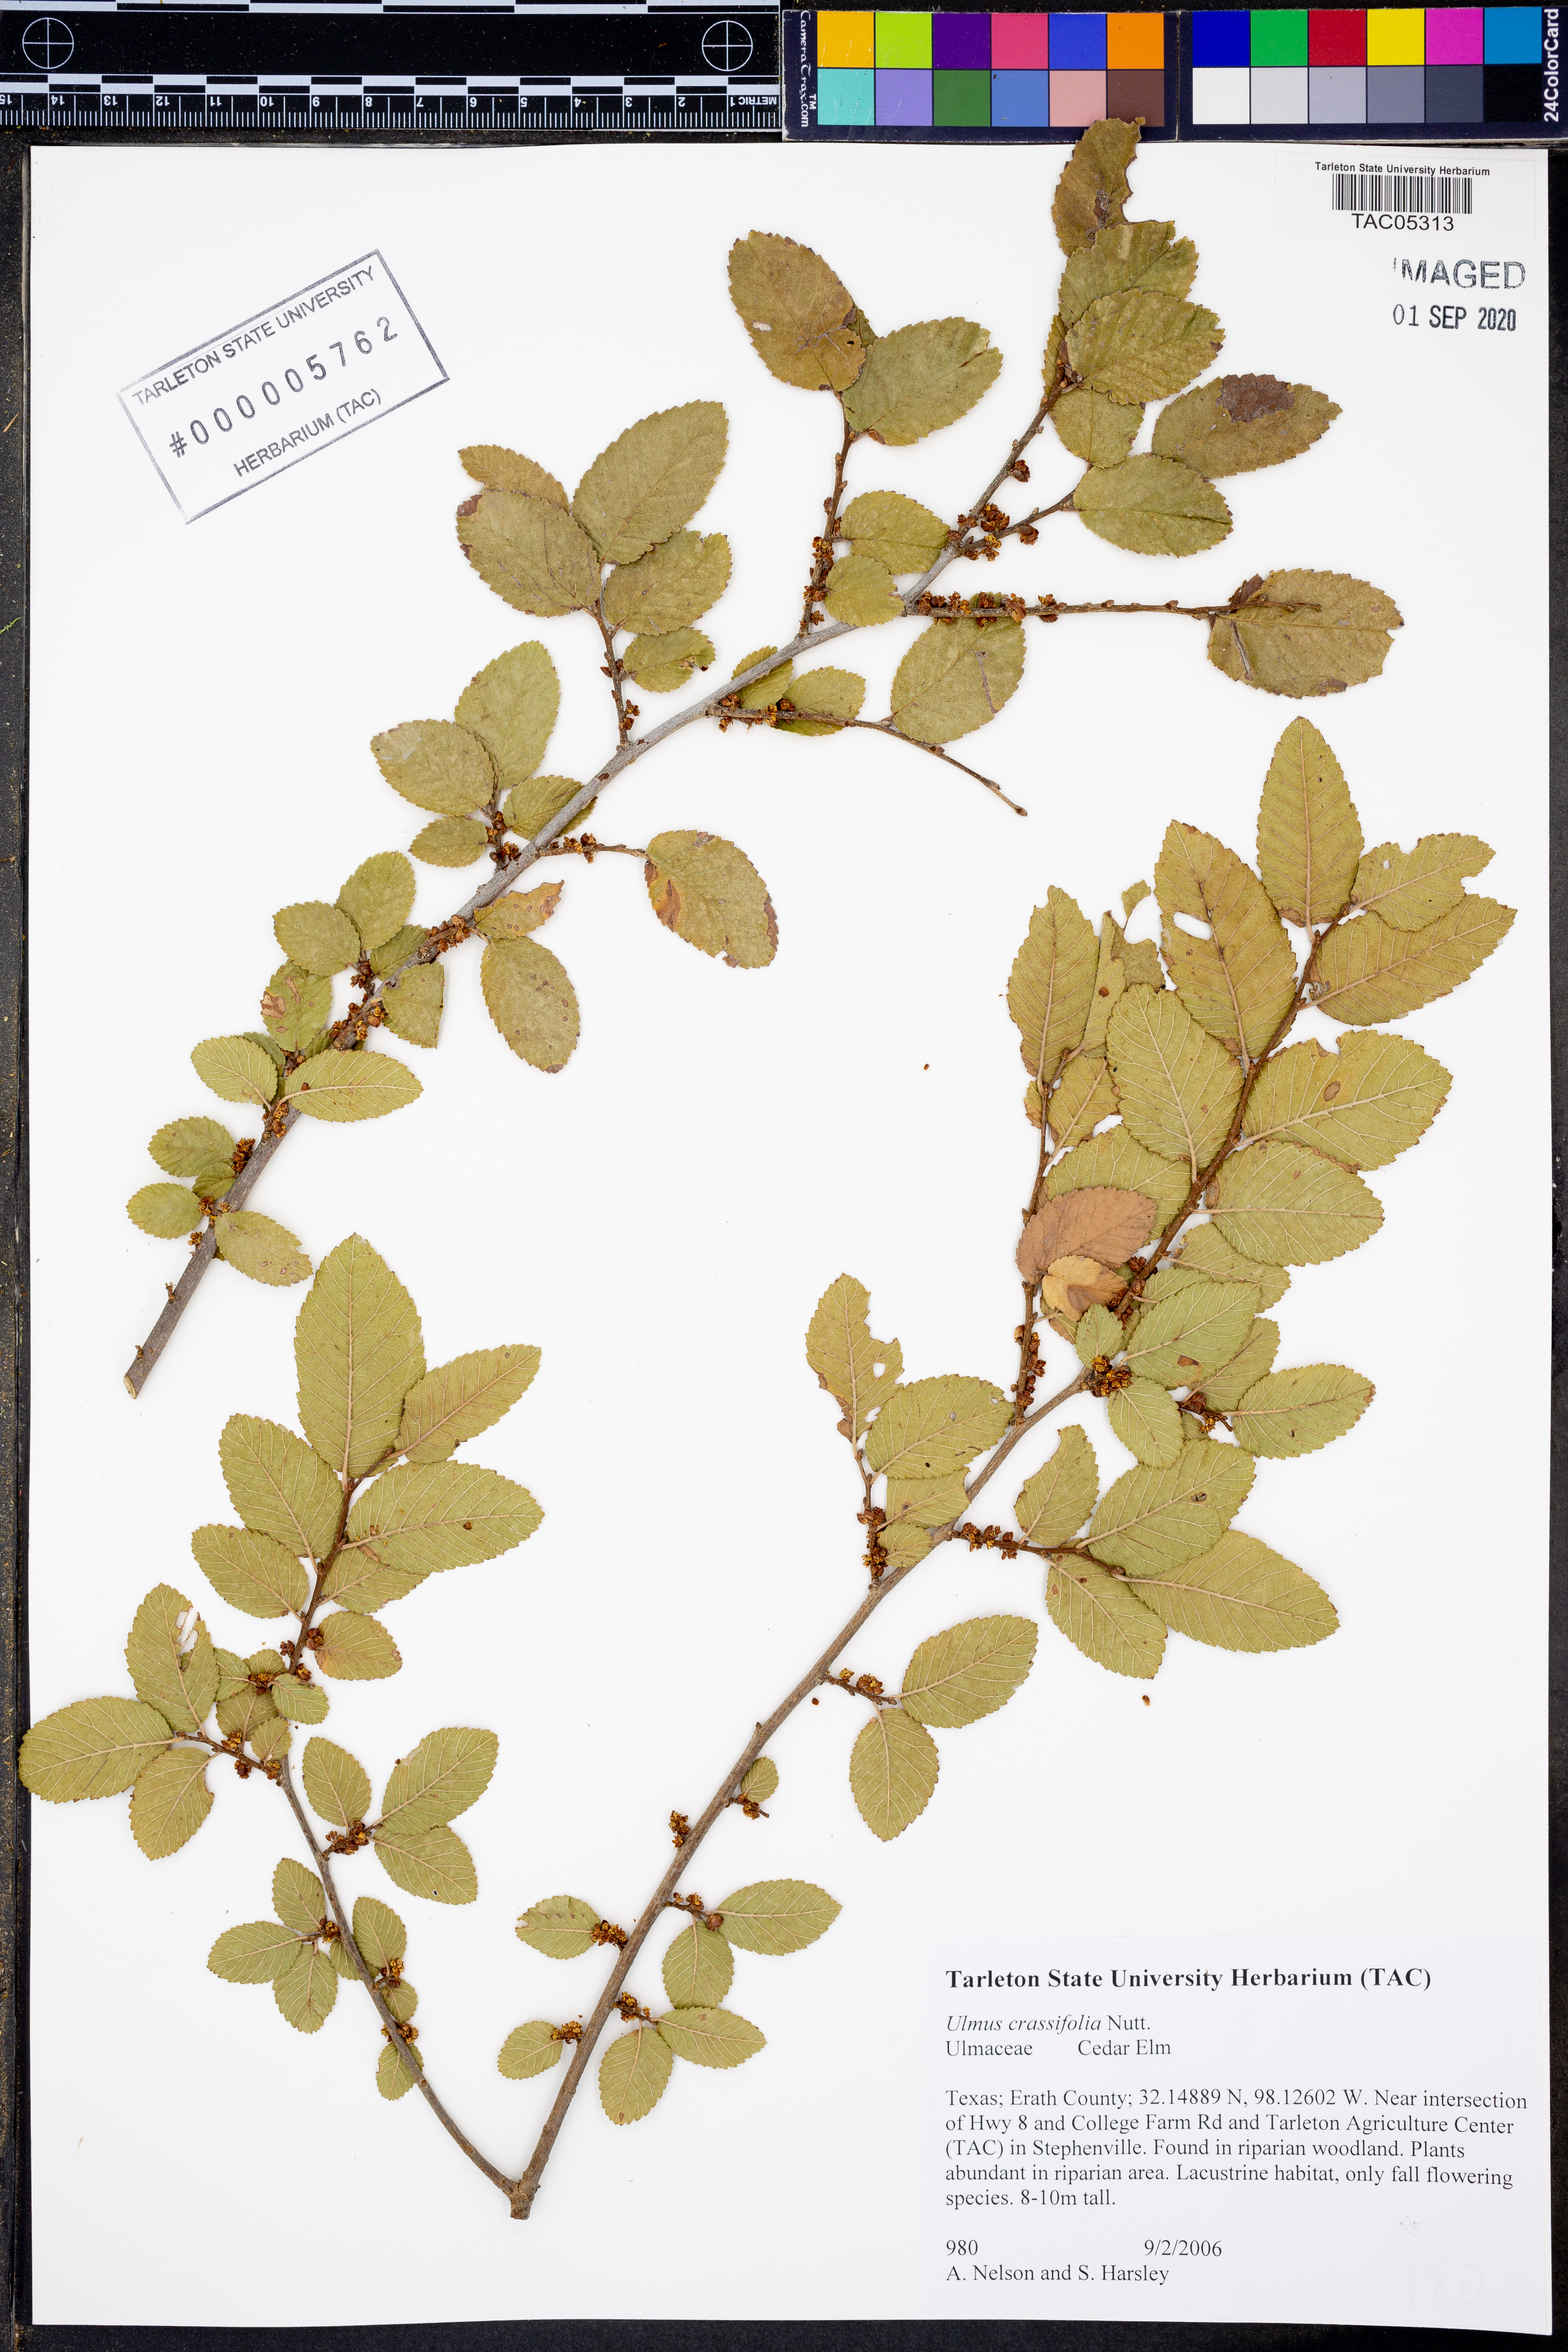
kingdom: Plantae
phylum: Tracheophyta
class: Magnoliopsida
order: Rosales
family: Ulmaceae
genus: Ulmus
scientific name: Ulmus crassifolia
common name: Basket elm
